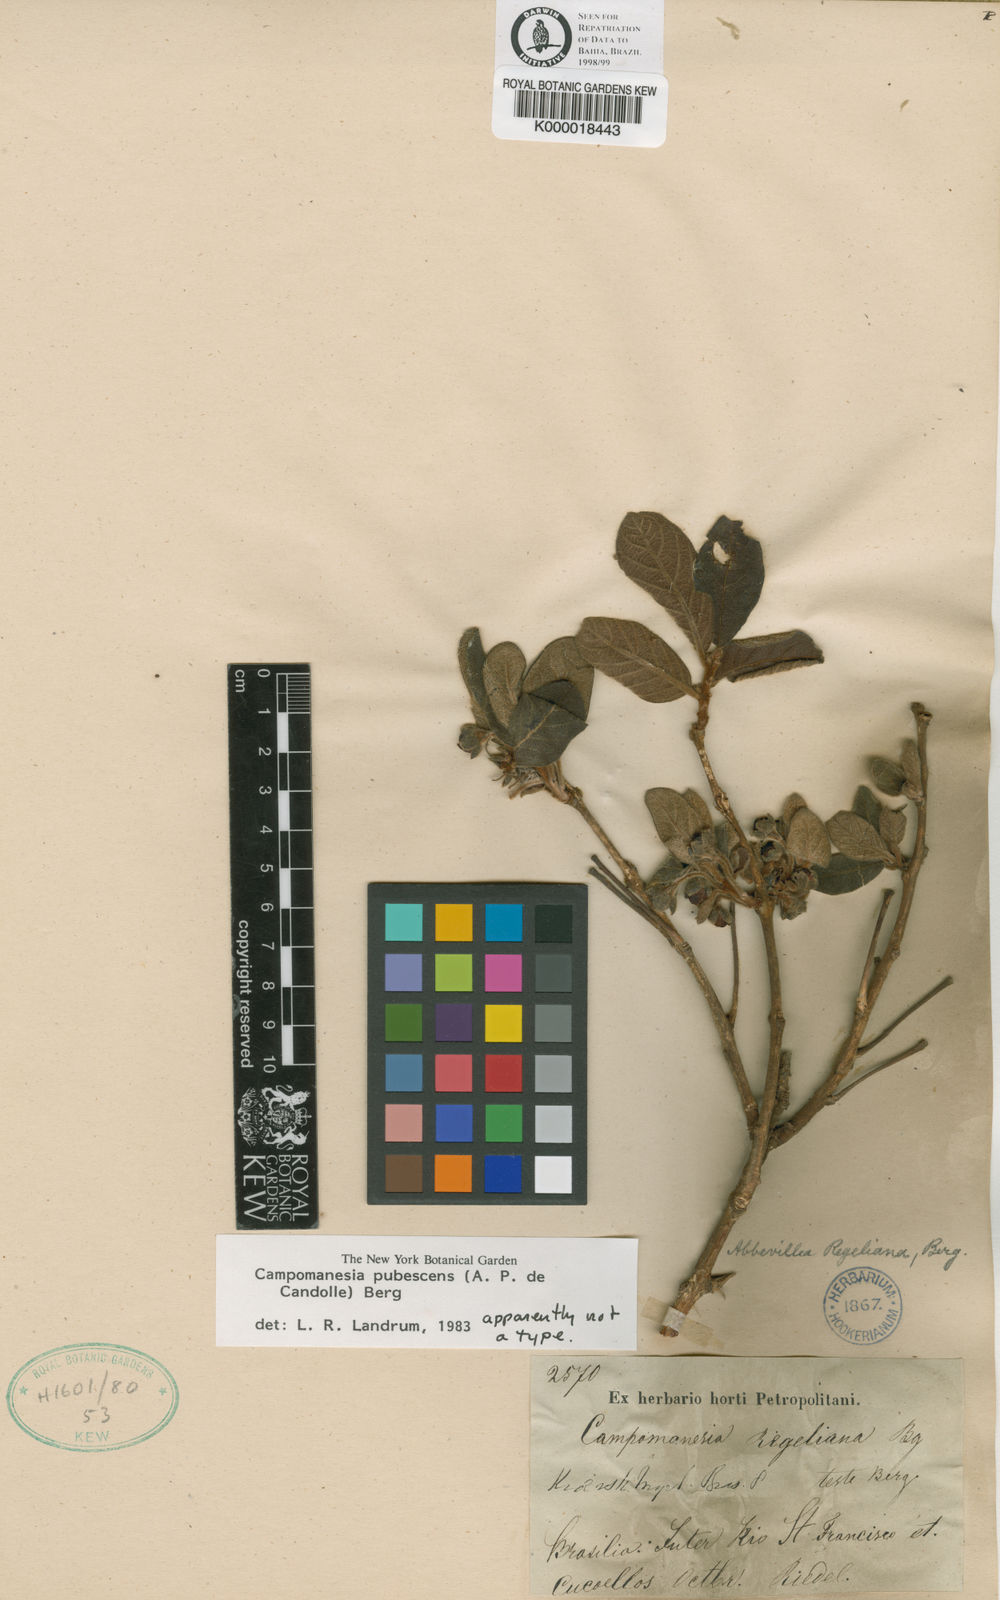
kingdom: Plantae
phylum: Tracheophyta
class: Magnoliopsida
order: Myrtales
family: Myrtaceae
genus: Campomanesia
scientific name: Campomanesia pubescens
